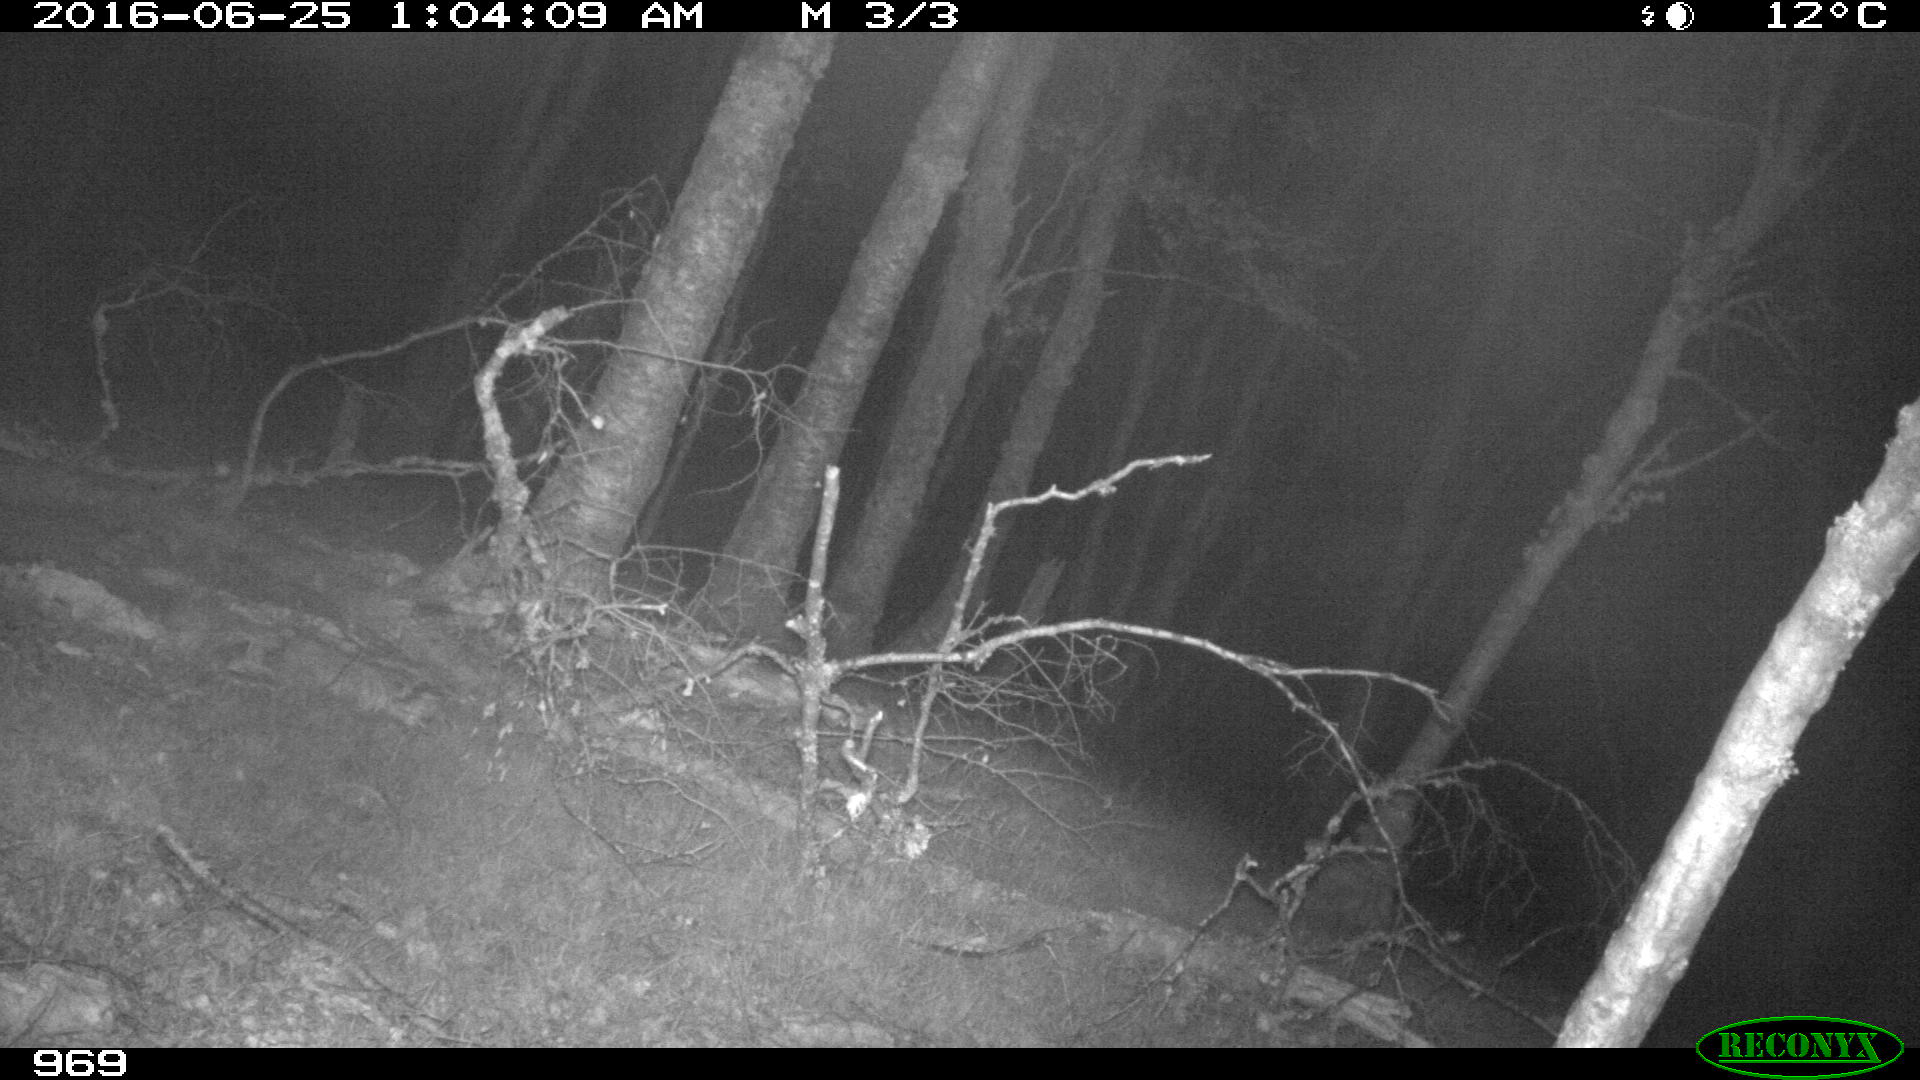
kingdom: Animalia
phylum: Chordata
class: Mammalia
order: Perissodactyla
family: Equidae
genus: Equus
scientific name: Equus caballus
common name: Horse
